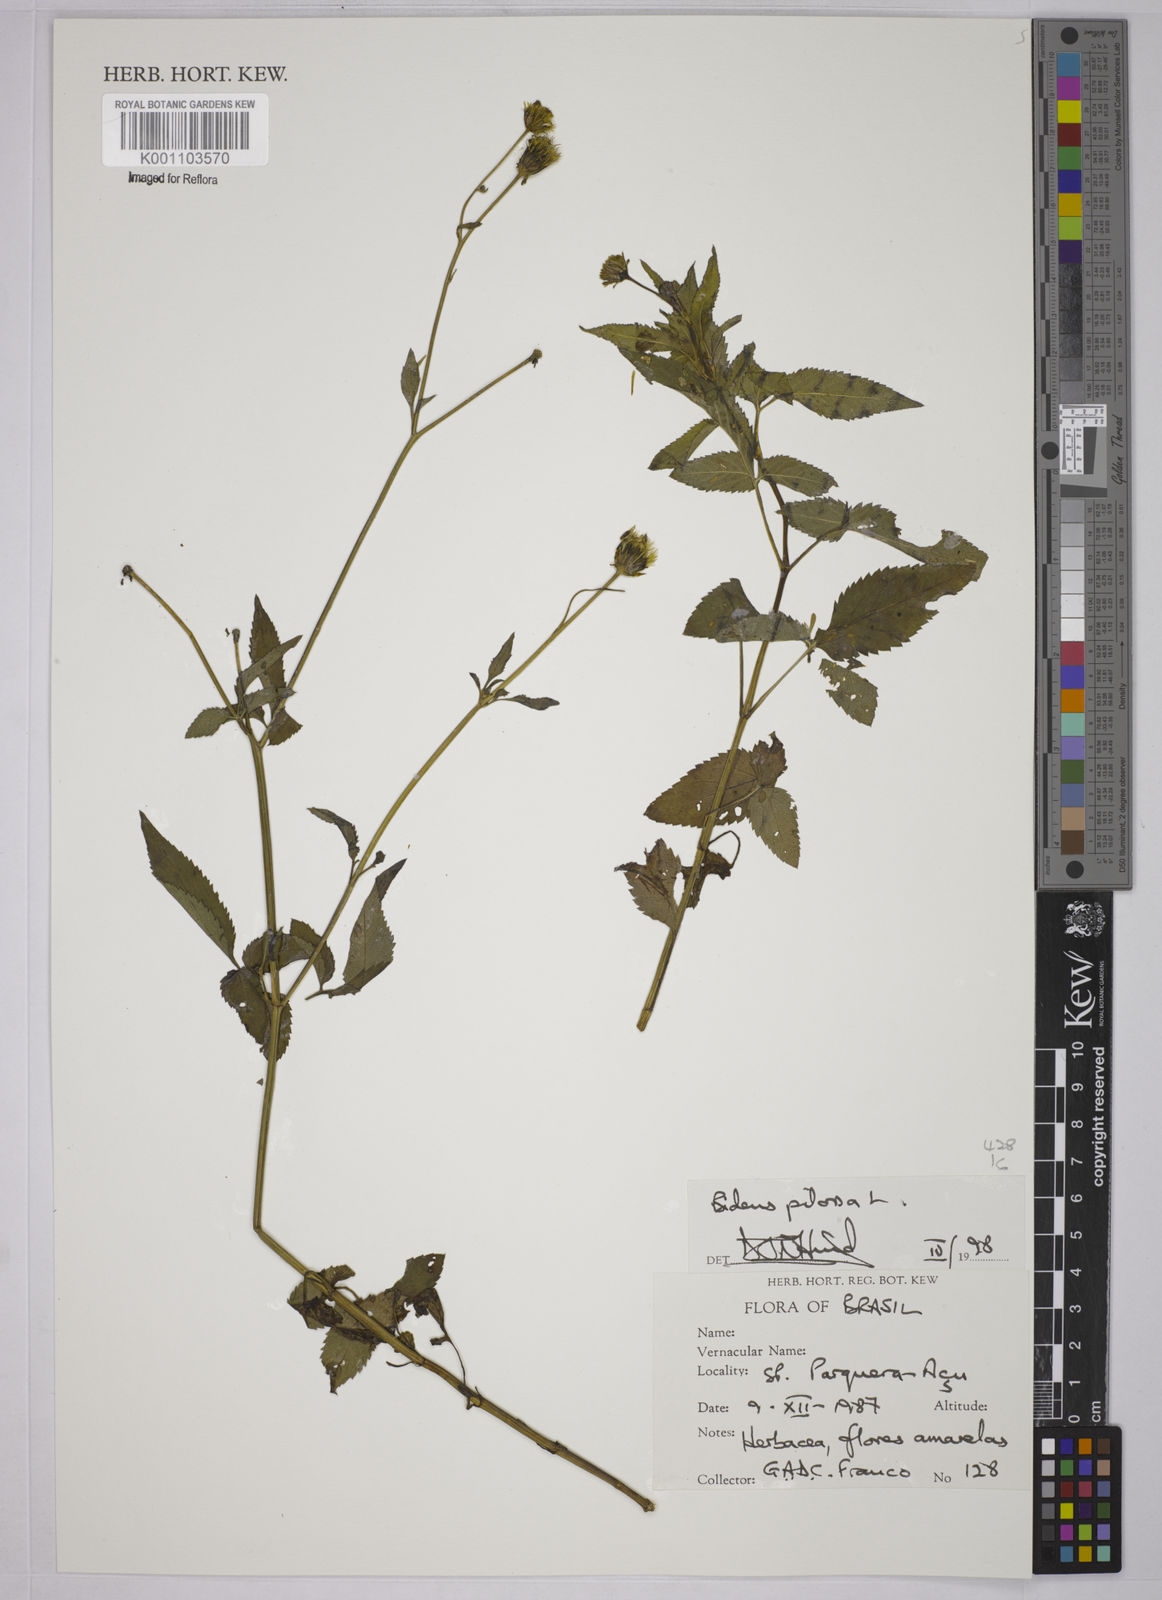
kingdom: Plantae
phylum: Tracheophyta
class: Magnoliopsida
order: Asterales
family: Asteraceae
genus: Bidens
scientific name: Bidens pilosa
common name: Black-jack
